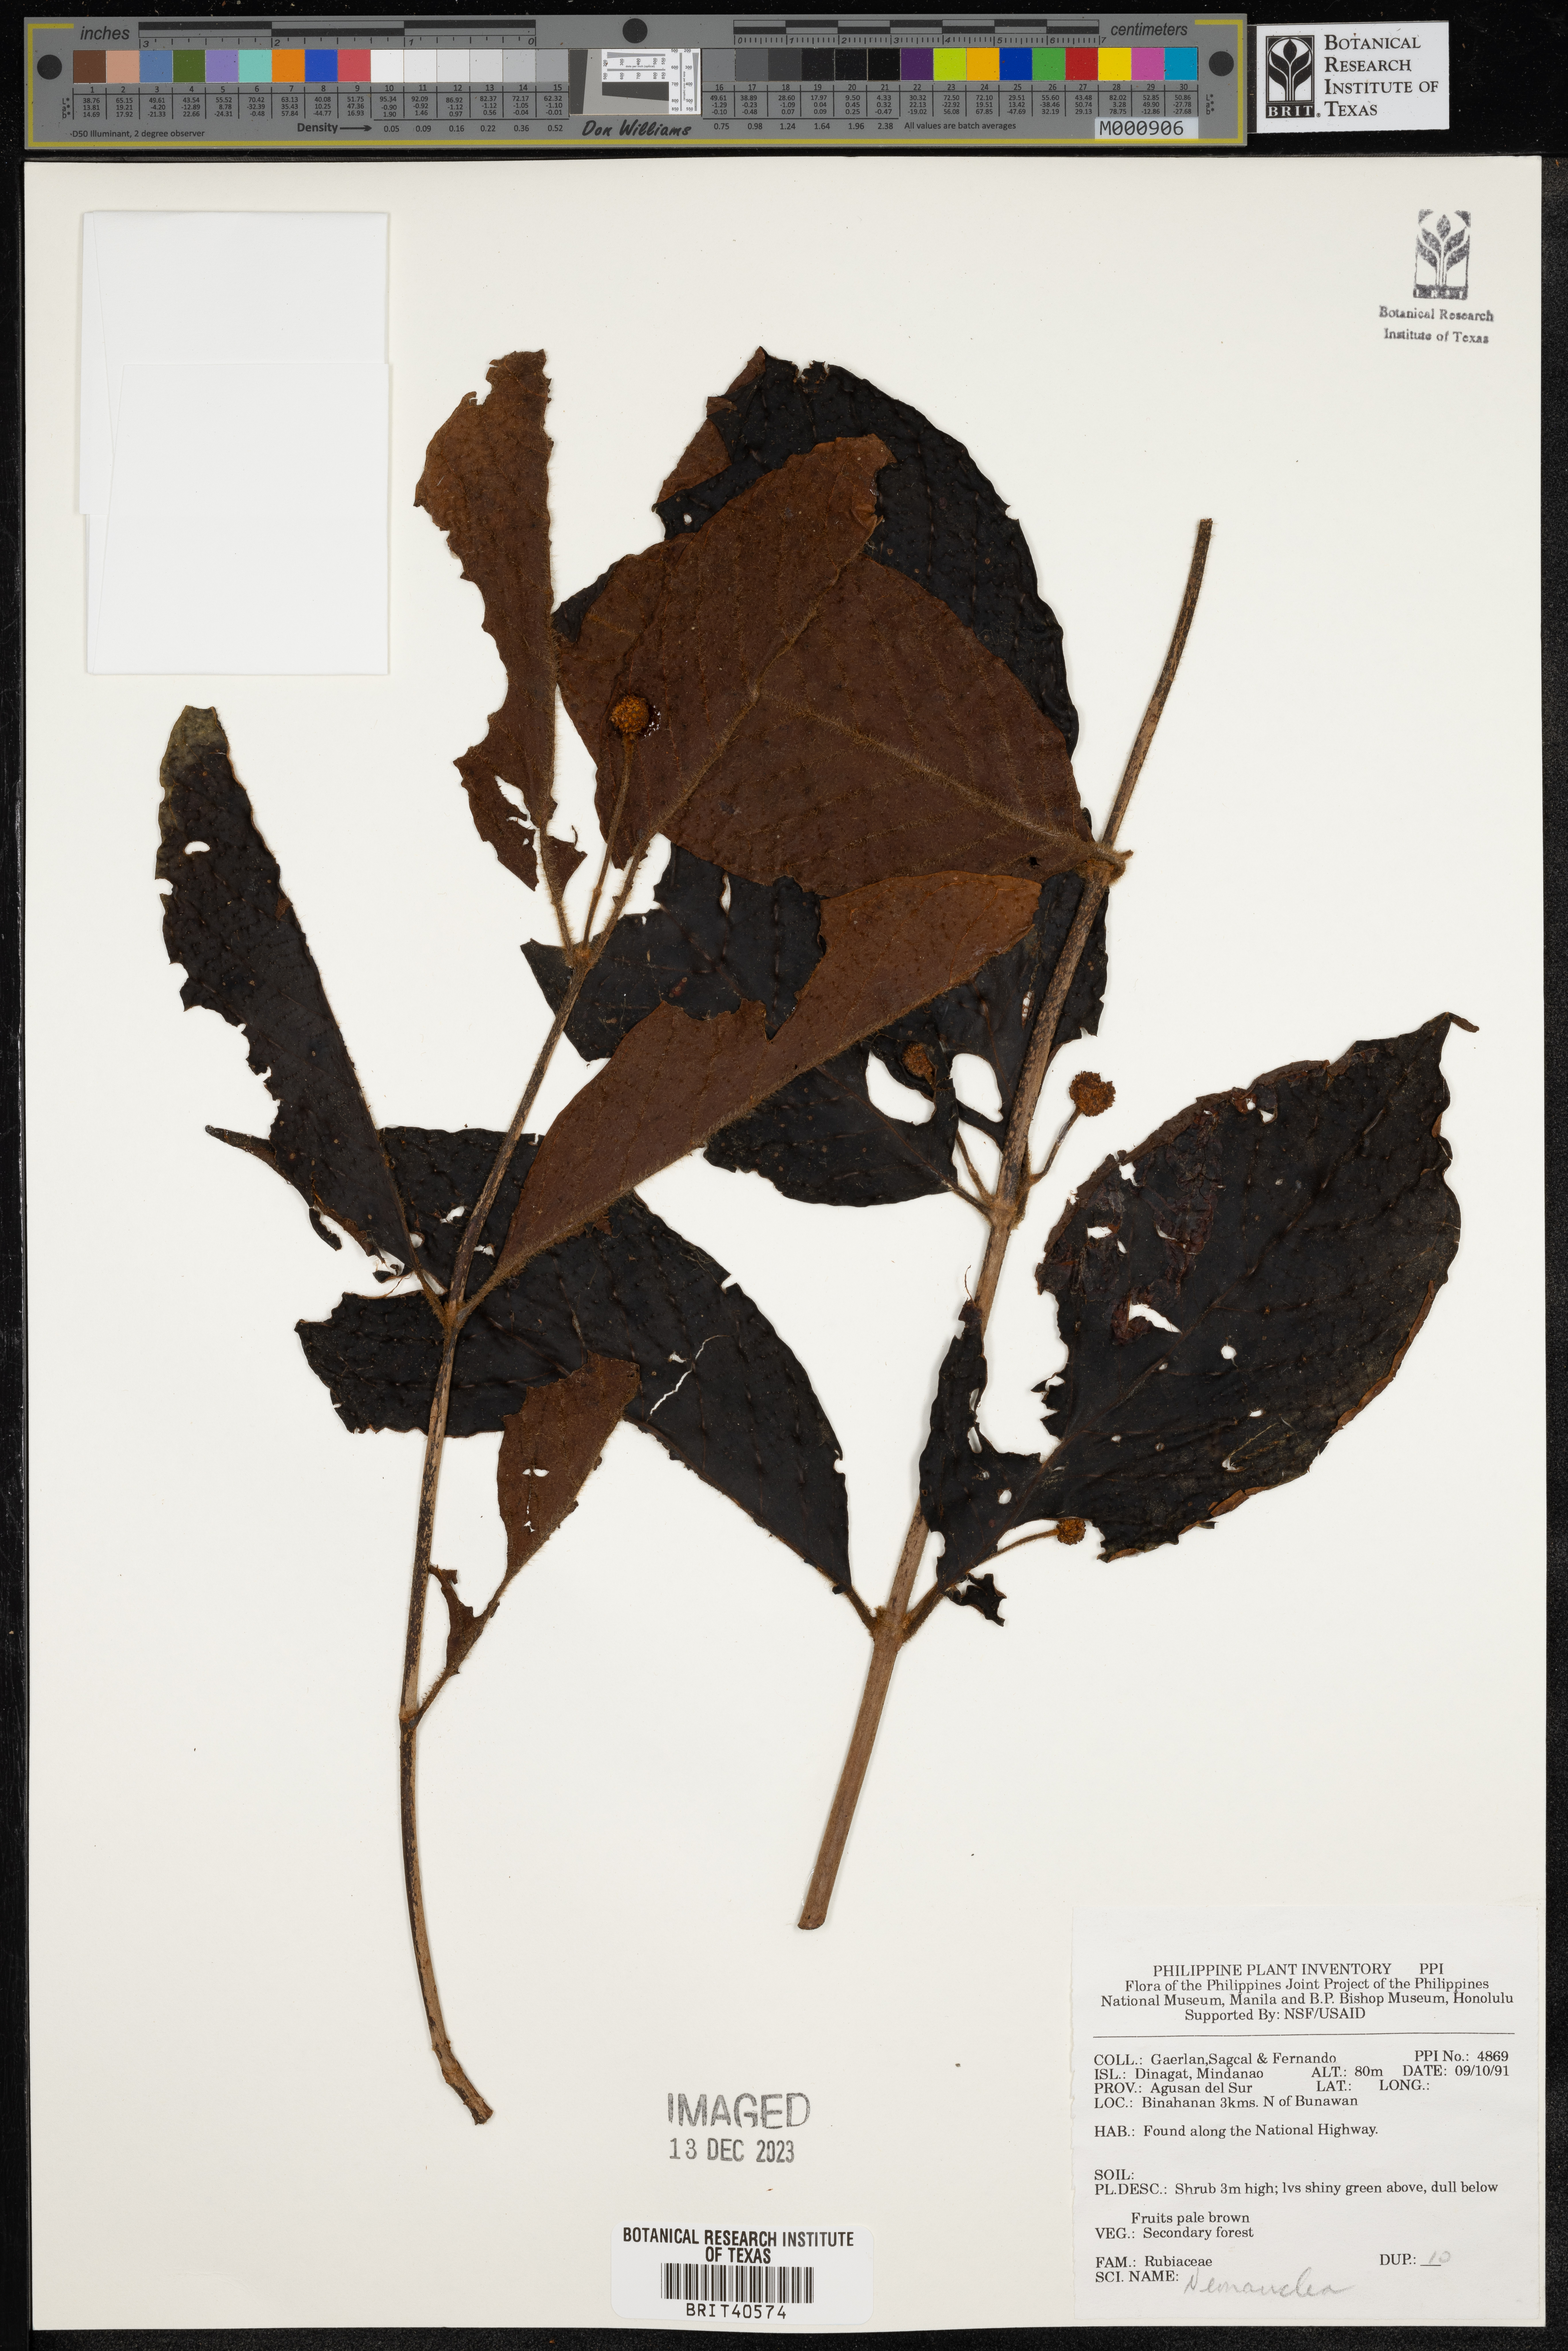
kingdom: Plantae
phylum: Tracheophyta
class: Magnoliopsida
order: Gentianales
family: Rubiaceae
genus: Neonauclea
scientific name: Neonauclea
